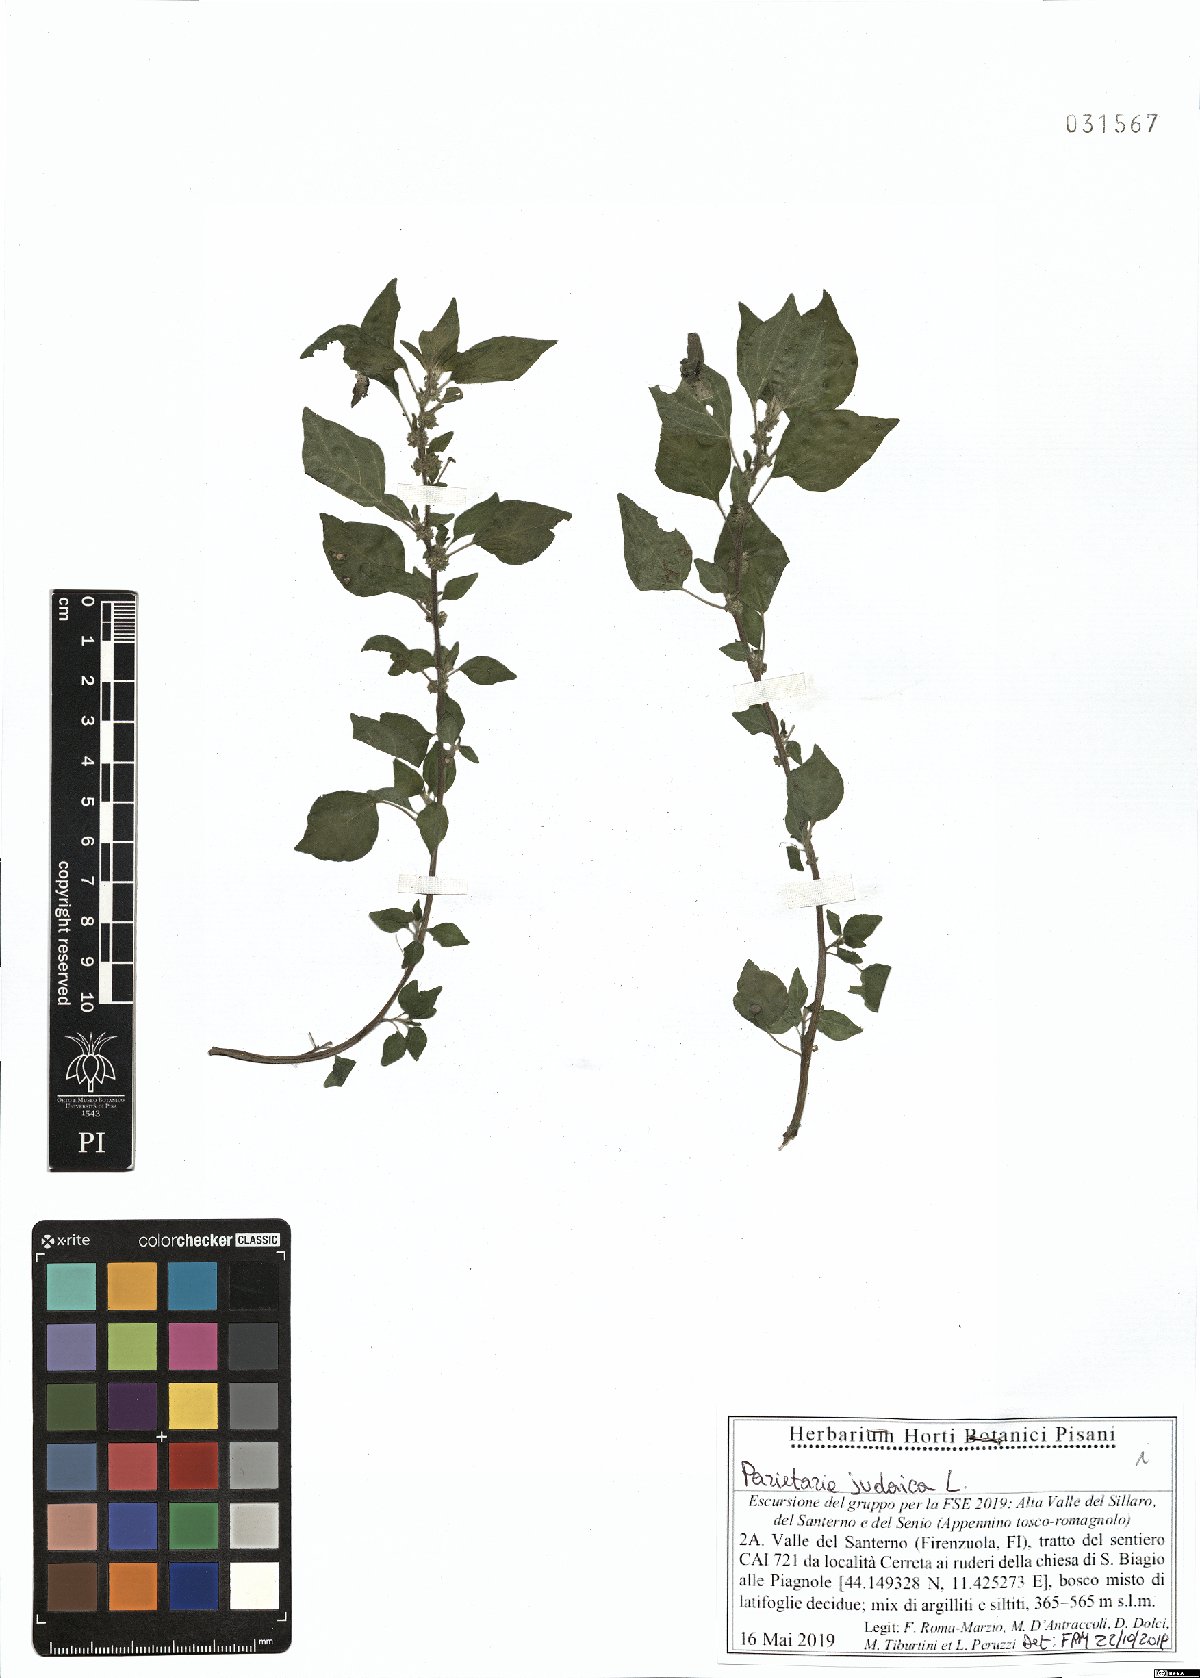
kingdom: Plantae
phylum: Tracheophyta
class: Magnoliopsida
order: Rosales
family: Urticaceae
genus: Parietaria
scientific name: Parietaria judaica
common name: Pellitory-of-the-wall
